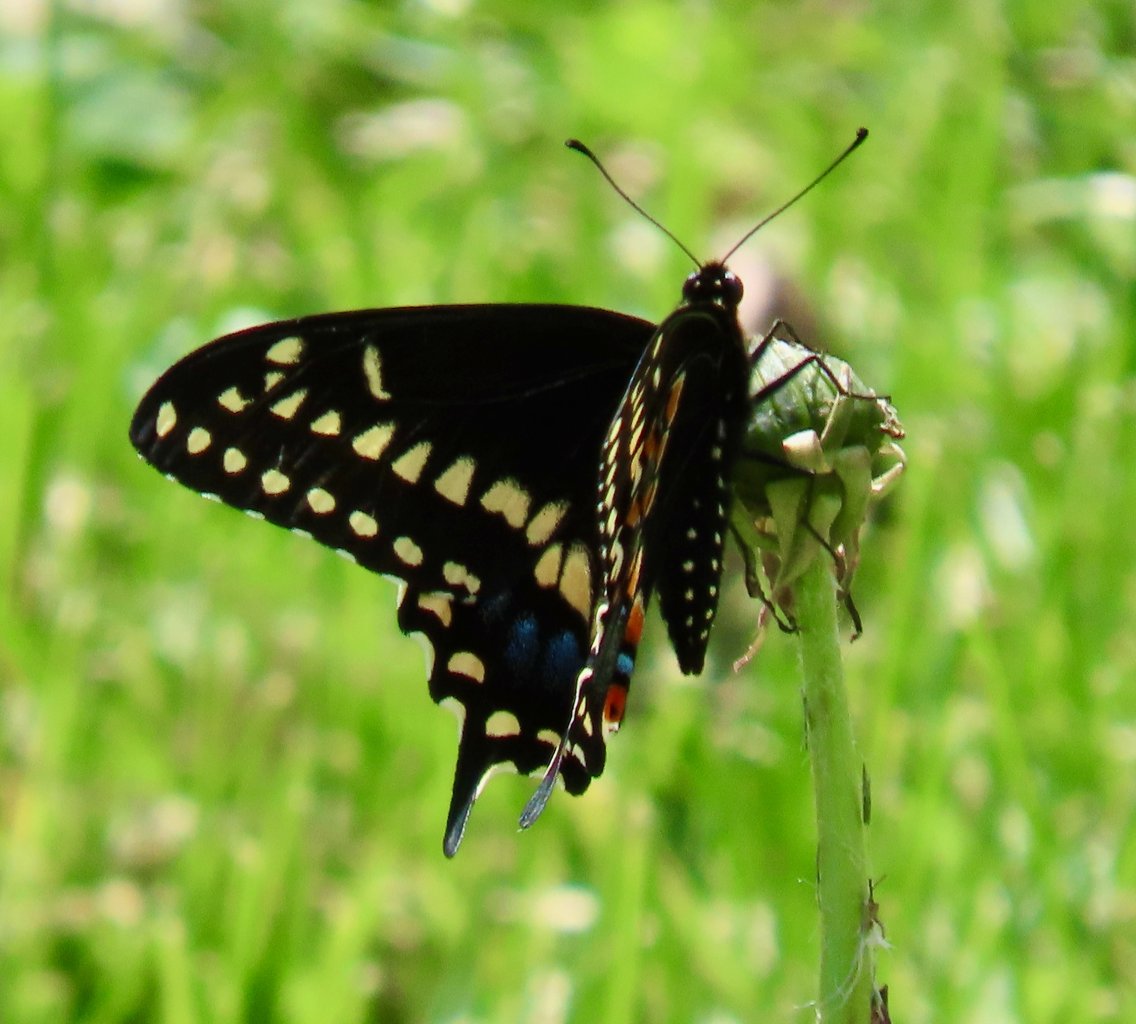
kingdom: Animalia
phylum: Arthropoda
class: Insecta
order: Lepidoptera
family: Papilionidae
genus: Papilio
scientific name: Papilio polyxenes
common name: Black Swallowtail
